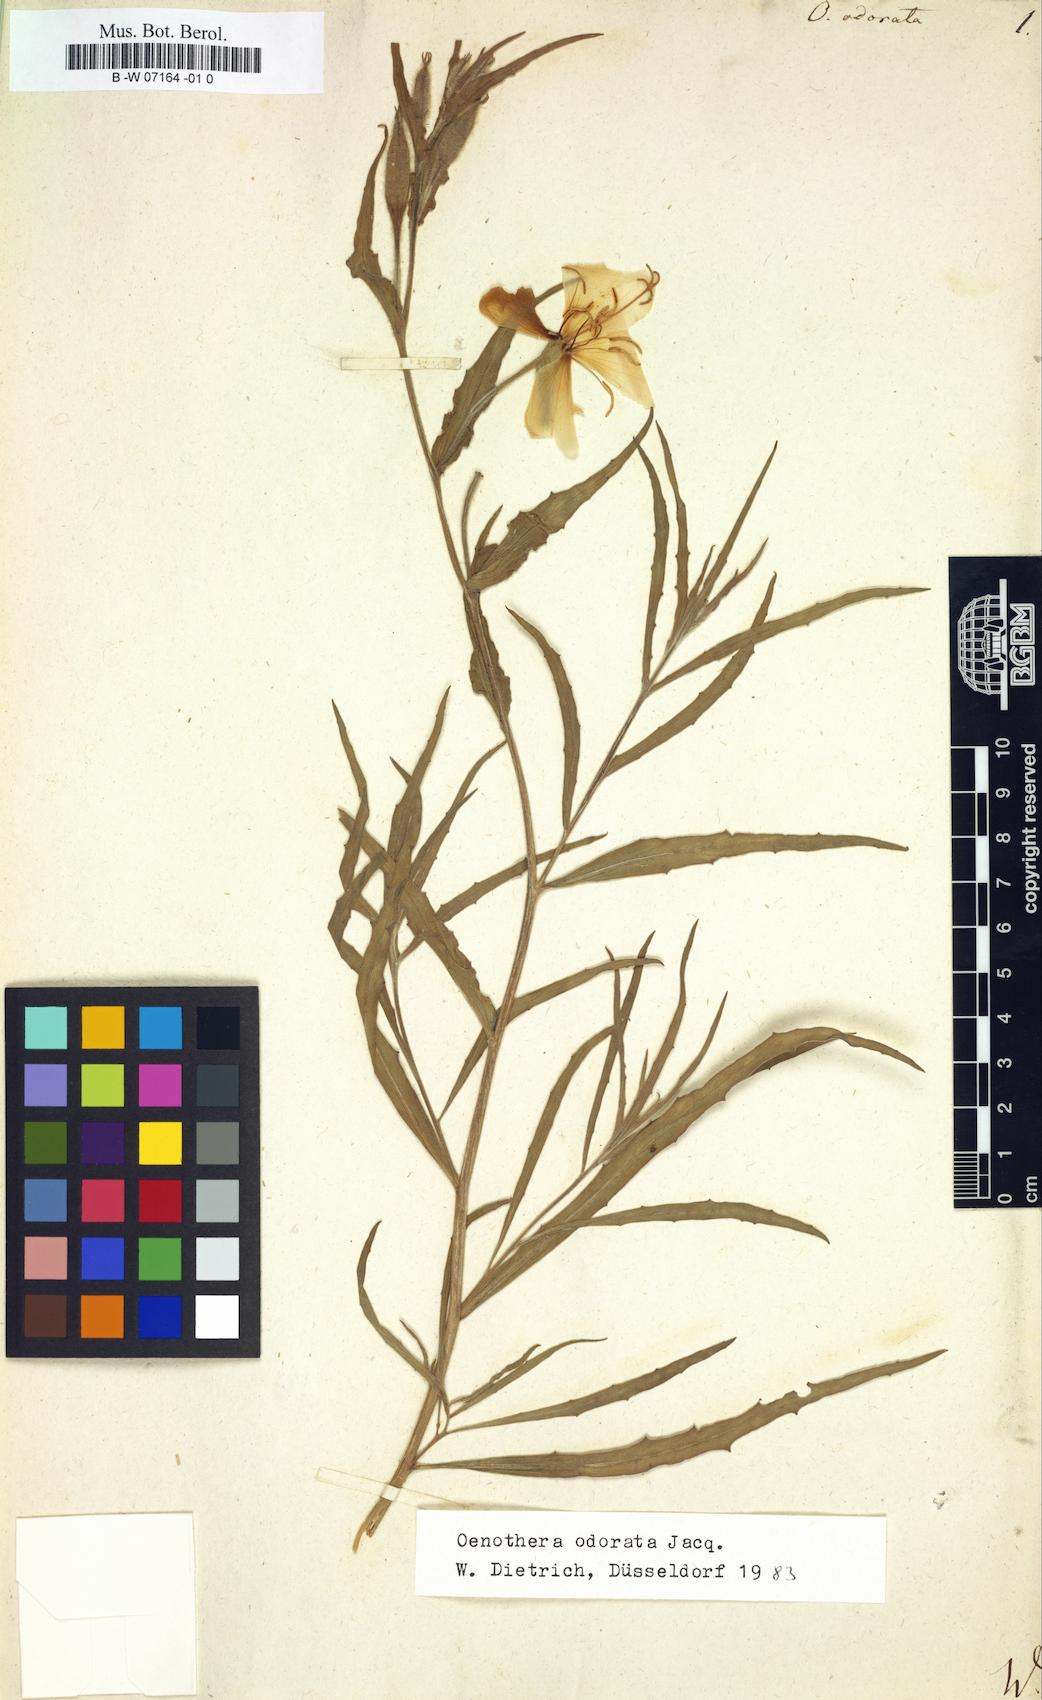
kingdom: Plantae
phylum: Tracheophyta
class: Magnoliopsida
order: Myrtales
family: Onagraceae
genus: Oenothera
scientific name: Oenothera odorata
